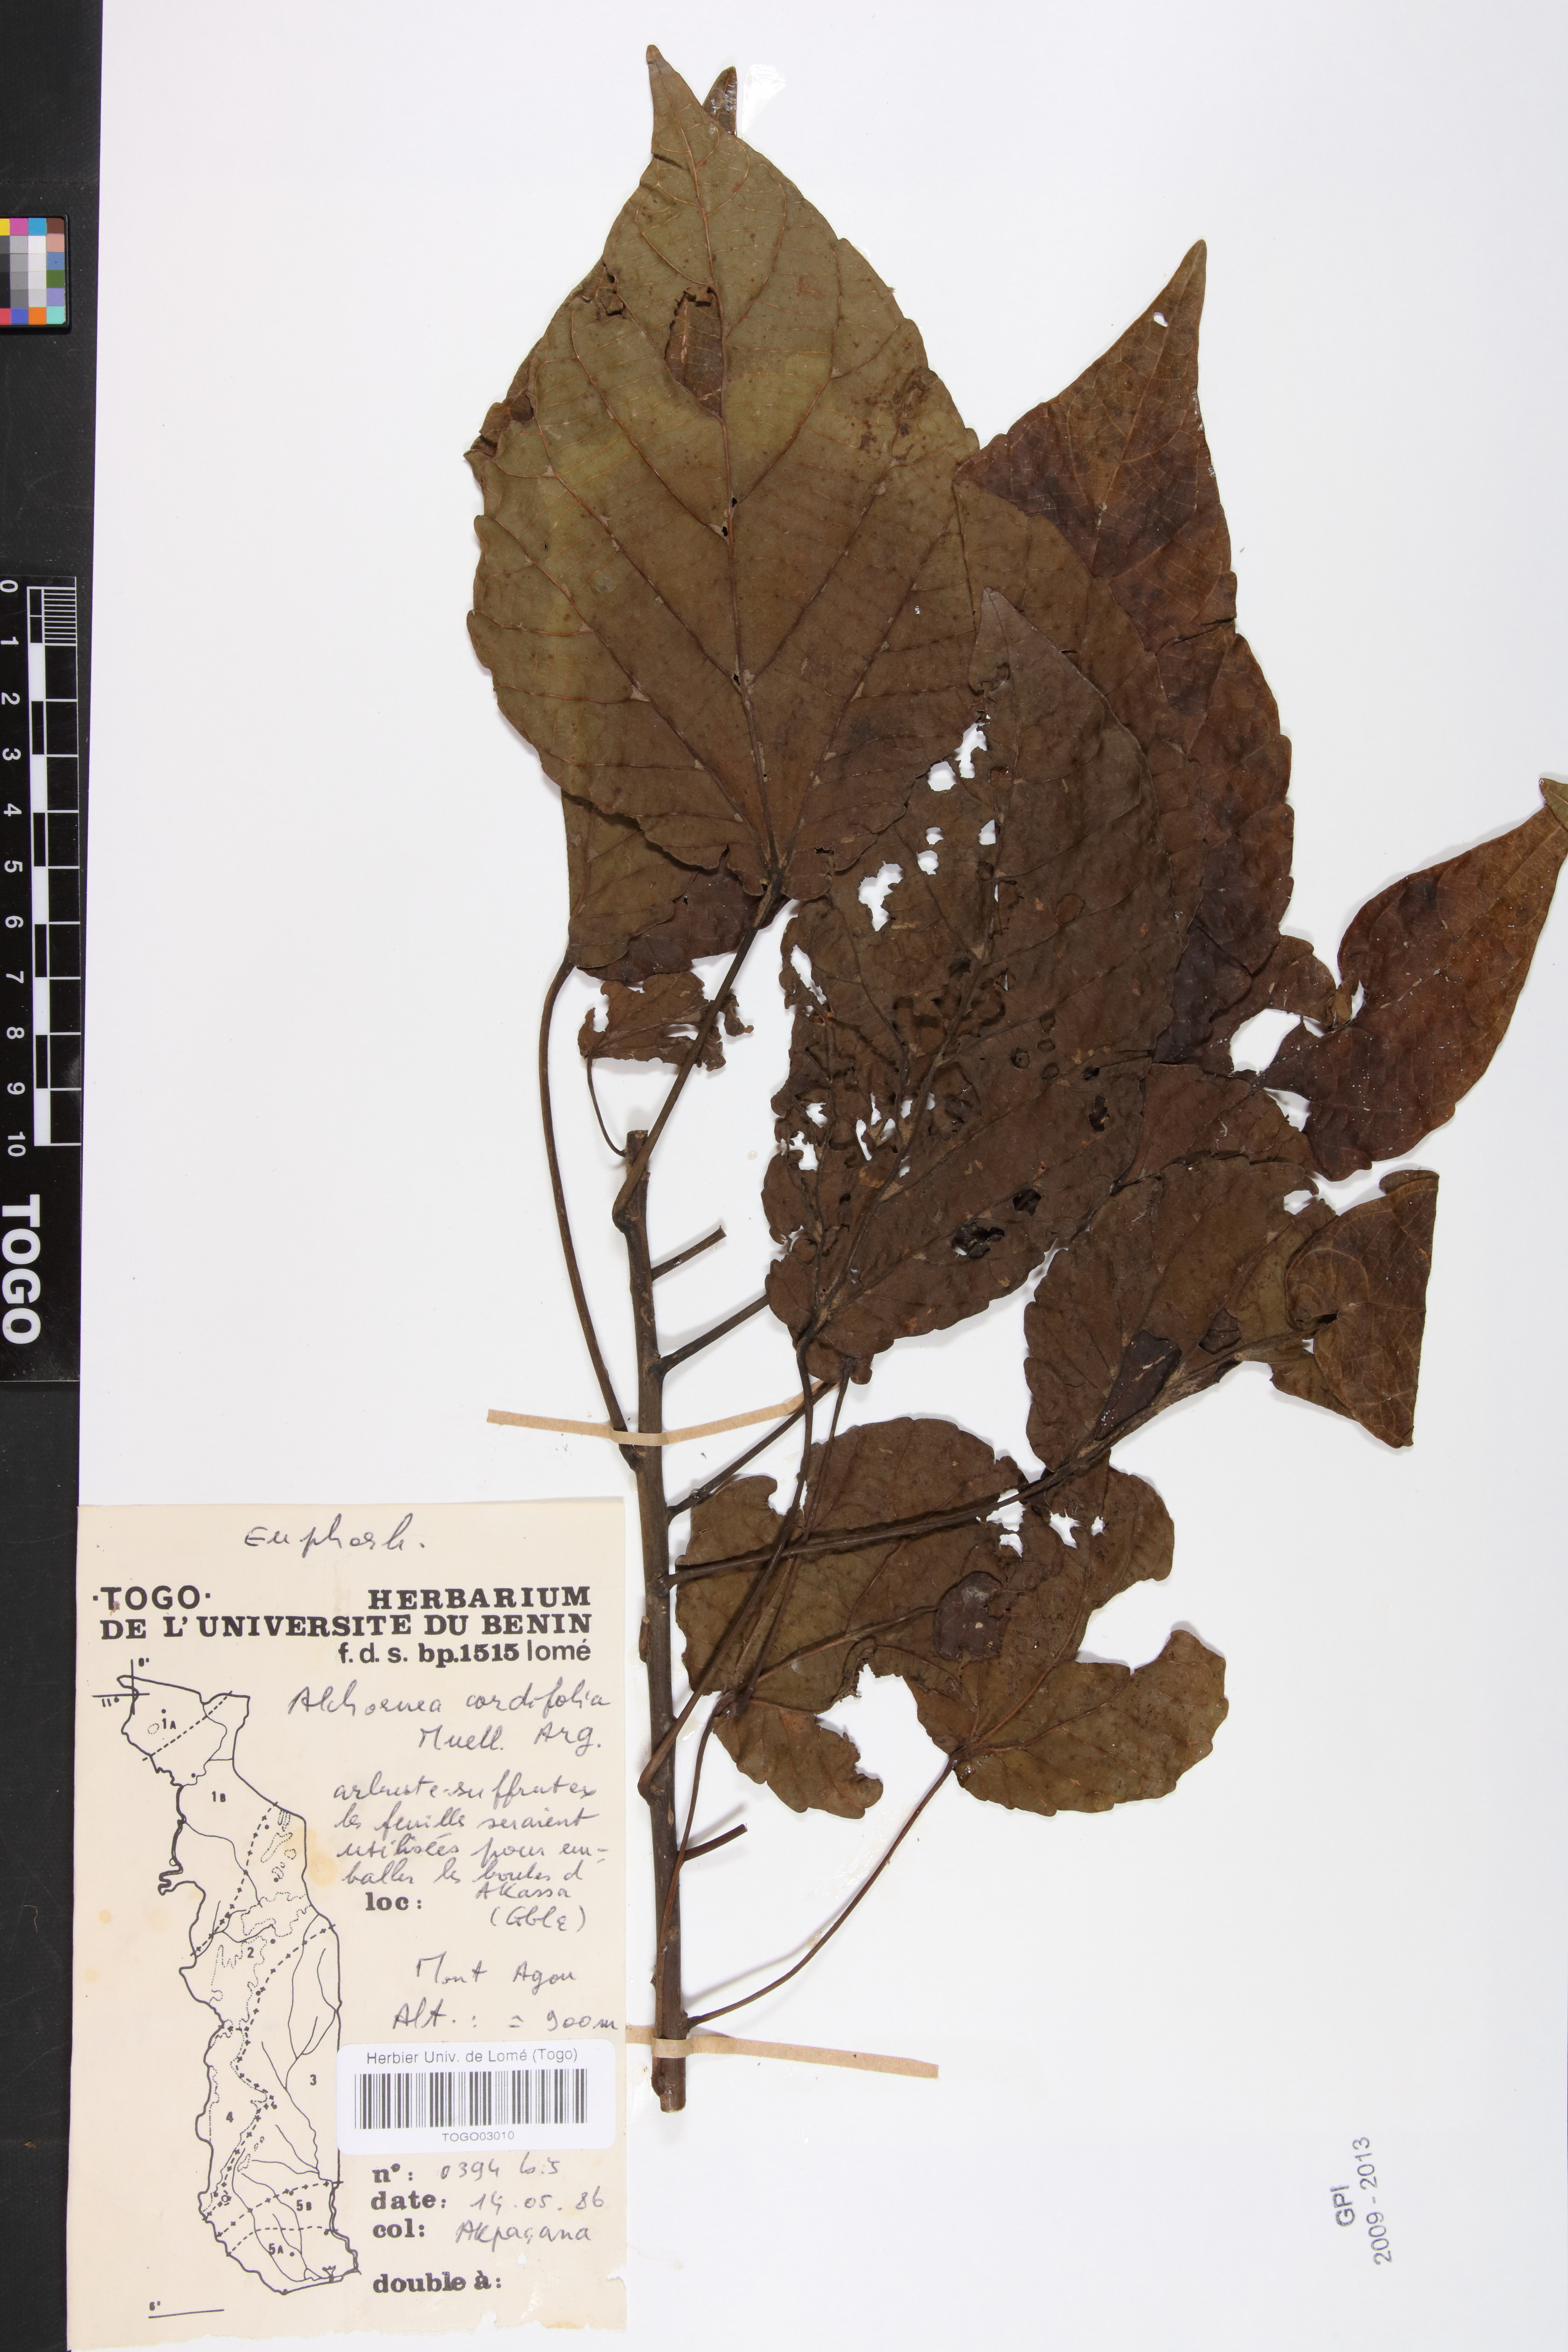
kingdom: Plantae
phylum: Tracheophyta
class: Magnoliopsida
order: Malpighiales
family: Euphorbiaceae
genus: Alchornea
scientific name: Alchornea cordifolia
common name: Christmasbush
